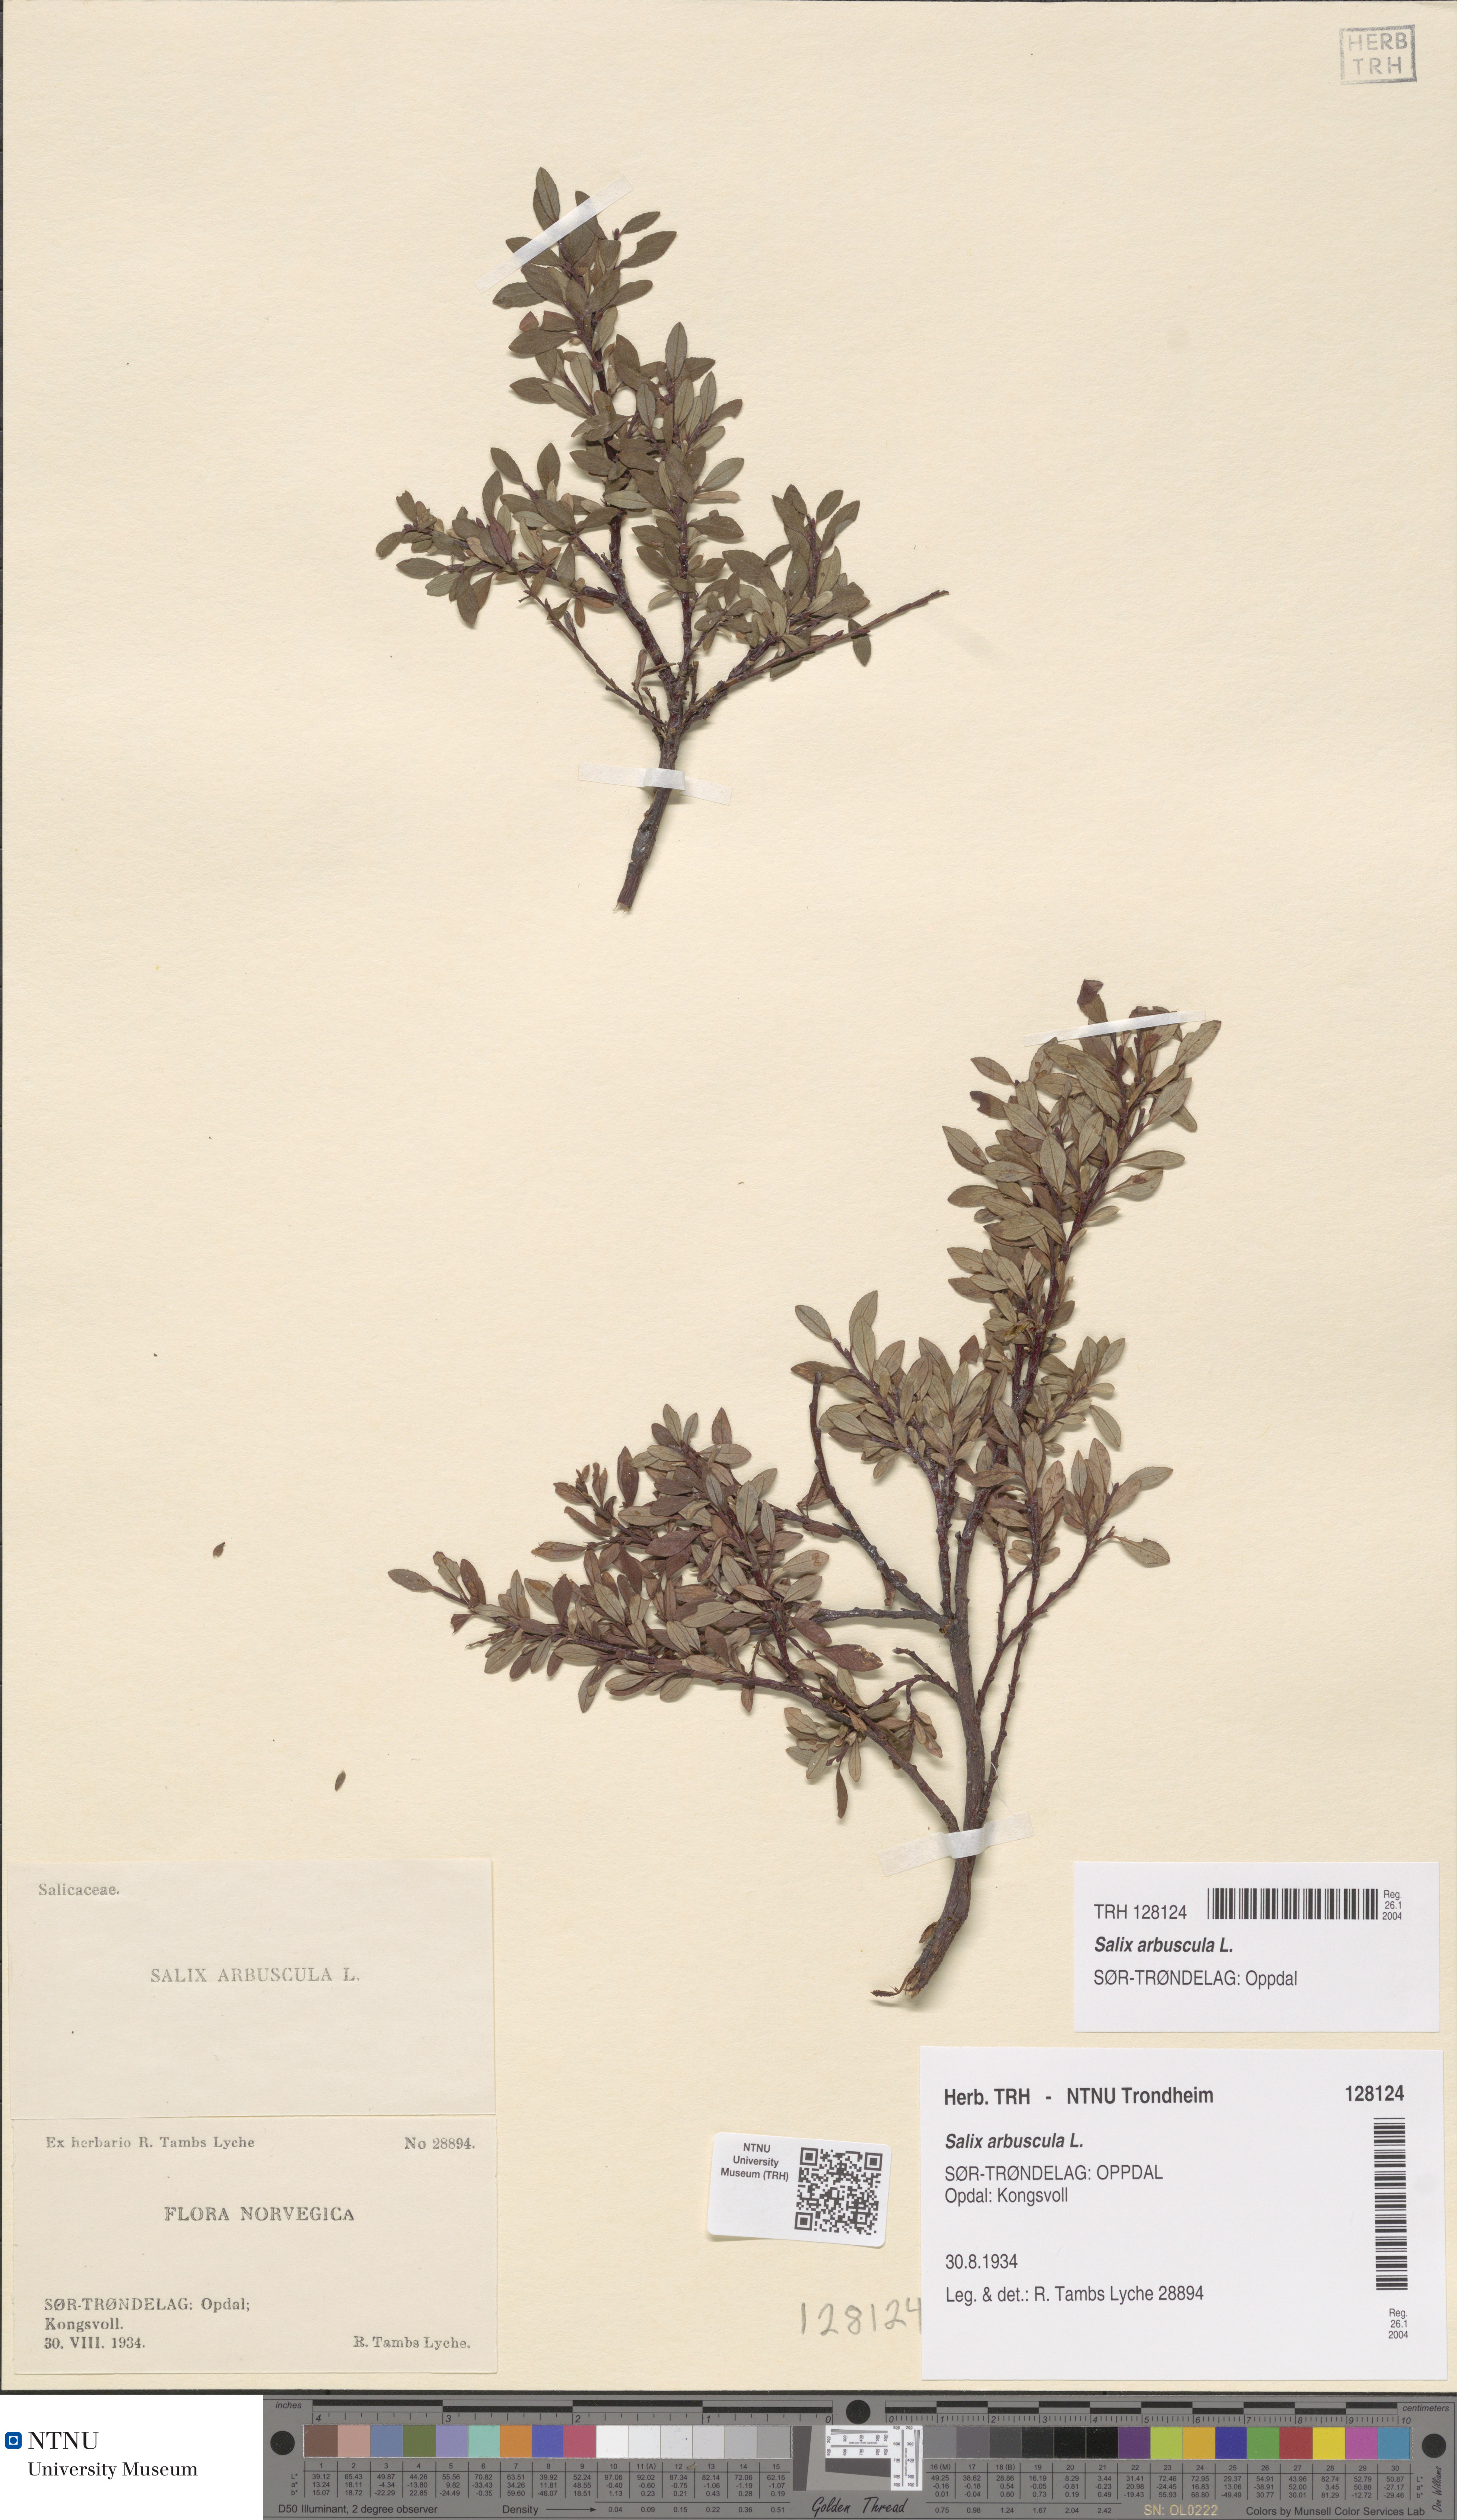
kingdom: Plantae
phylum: Tracheophyta
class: Magnoliopsida
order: Malpighiales
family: Salicaceae
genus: Salix
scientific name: Salix arbuscula
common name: Mountain willow
